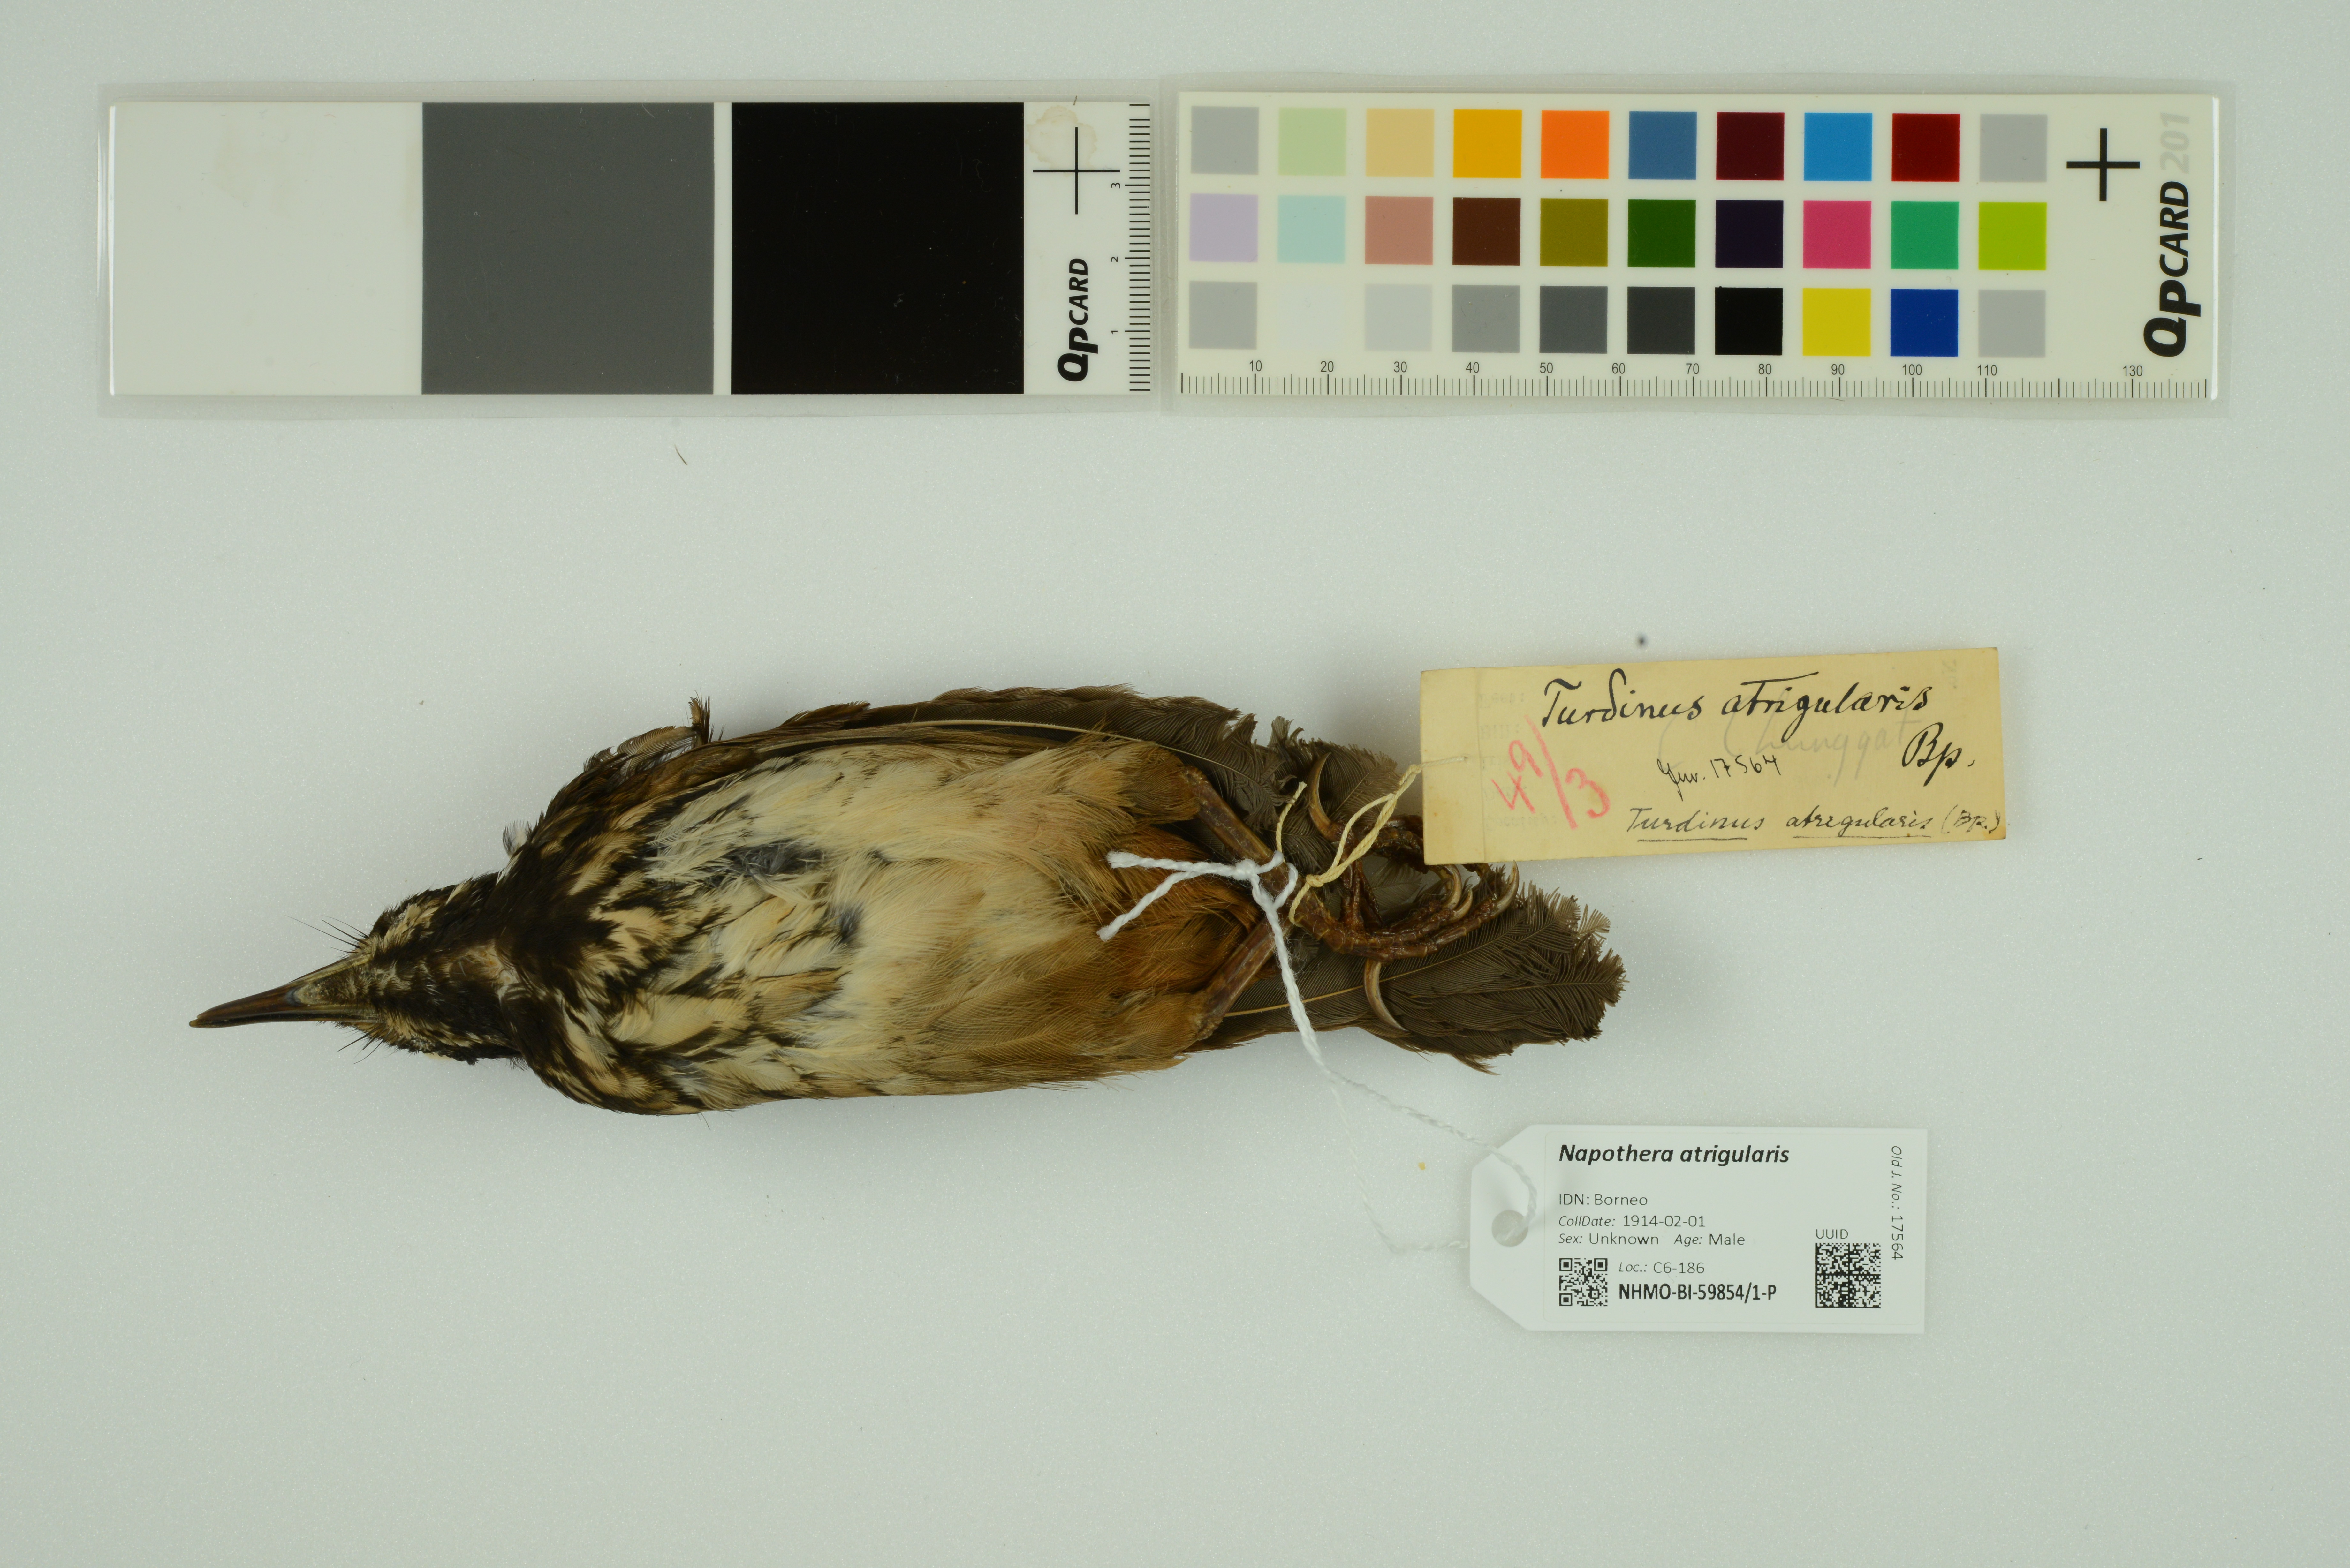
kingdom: Animalia
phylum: Chordata
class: Aves
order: Passeriformes
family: Pellorneidae
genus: Napothera
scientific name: Napothera atrigularis
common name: Black-throated wren-babbler
